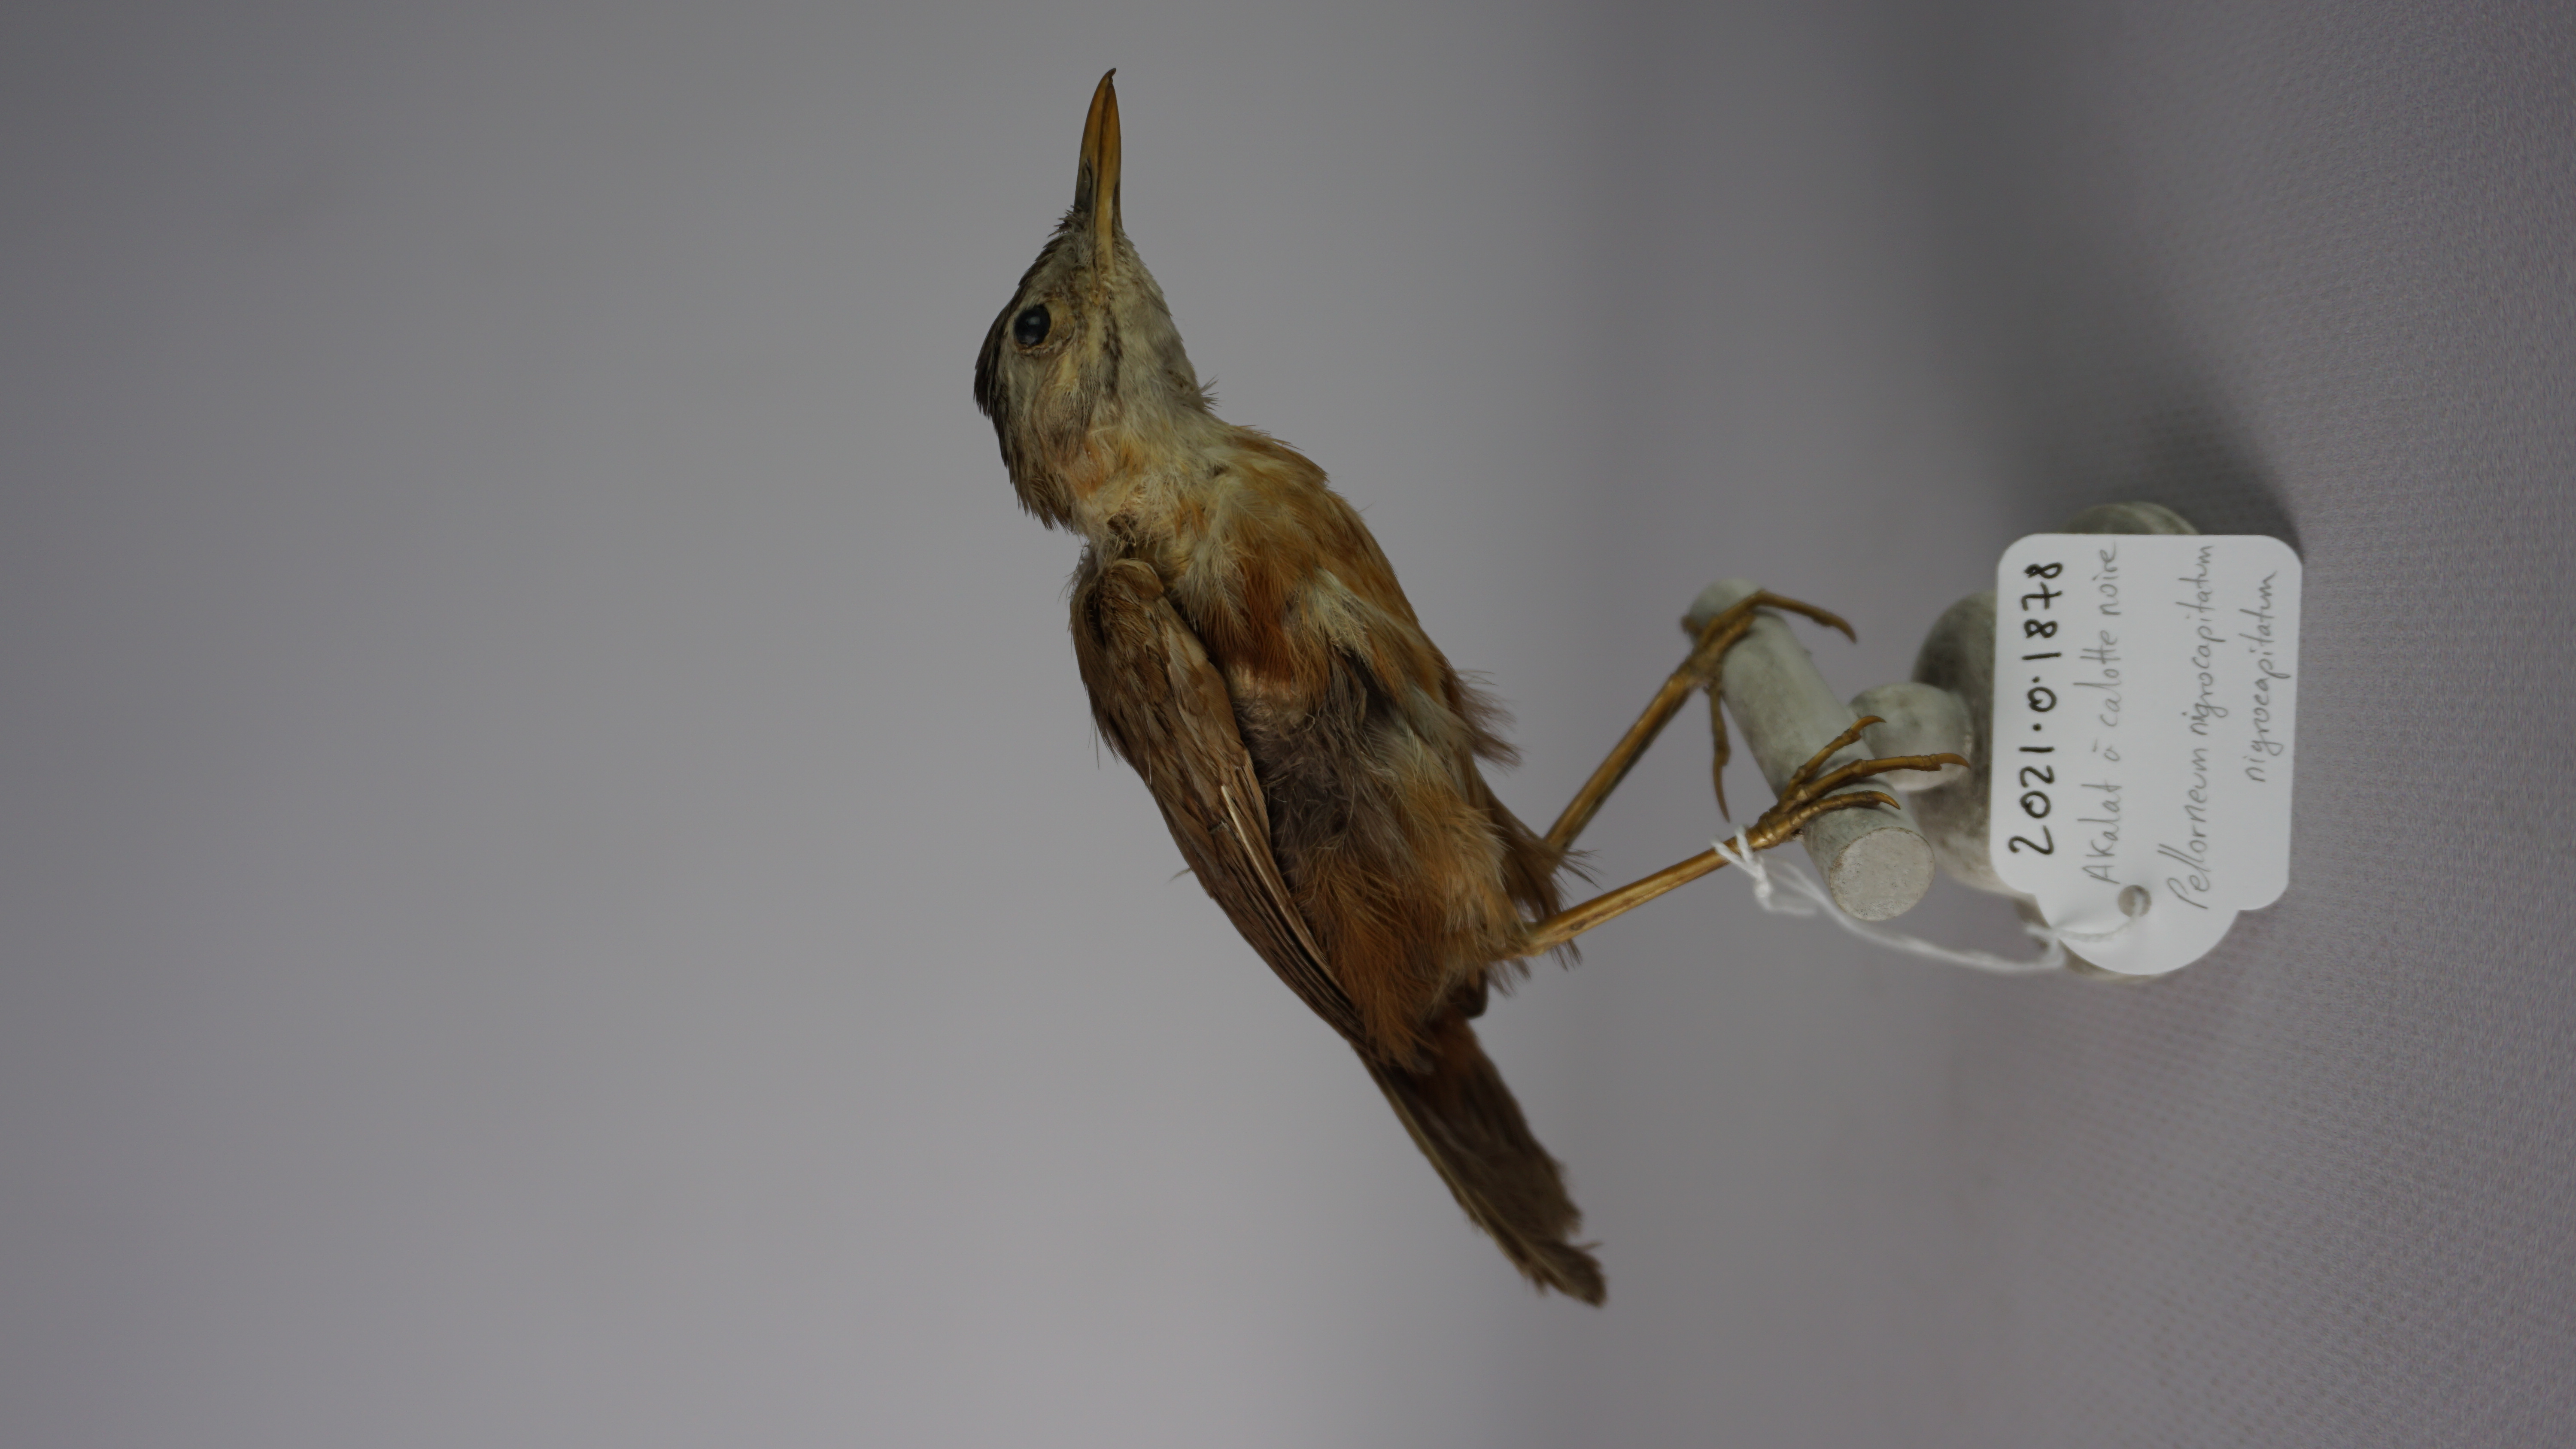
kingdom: Animalia
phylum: Chordata
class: Aves
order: Passeriformes
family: Pellorneidae
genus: Pellorneum
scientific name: Pellorneum capistratum
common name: Black-capped babbler
